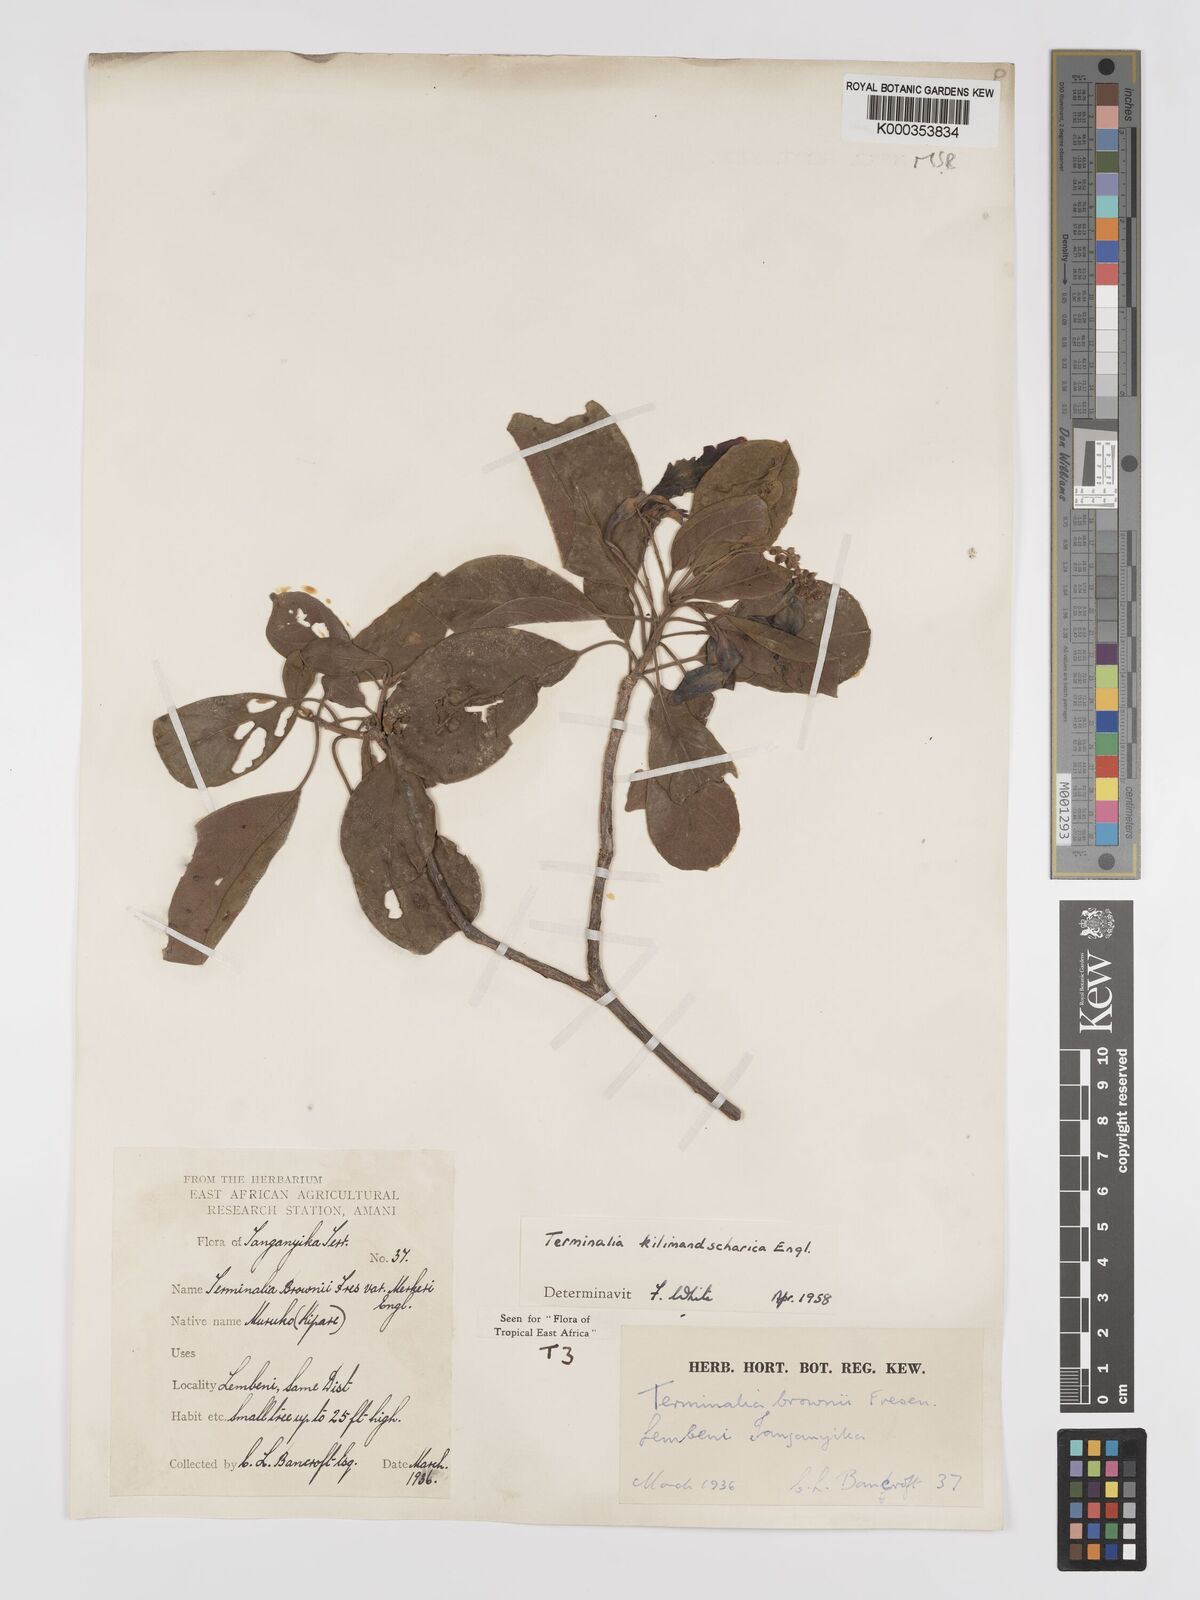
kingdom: Plantae
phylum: Tracheophyta
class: Magnoliopsida
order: Myrtales
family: Combretaceae
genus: Terminalia
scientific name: Terminalia kilimandscharica
